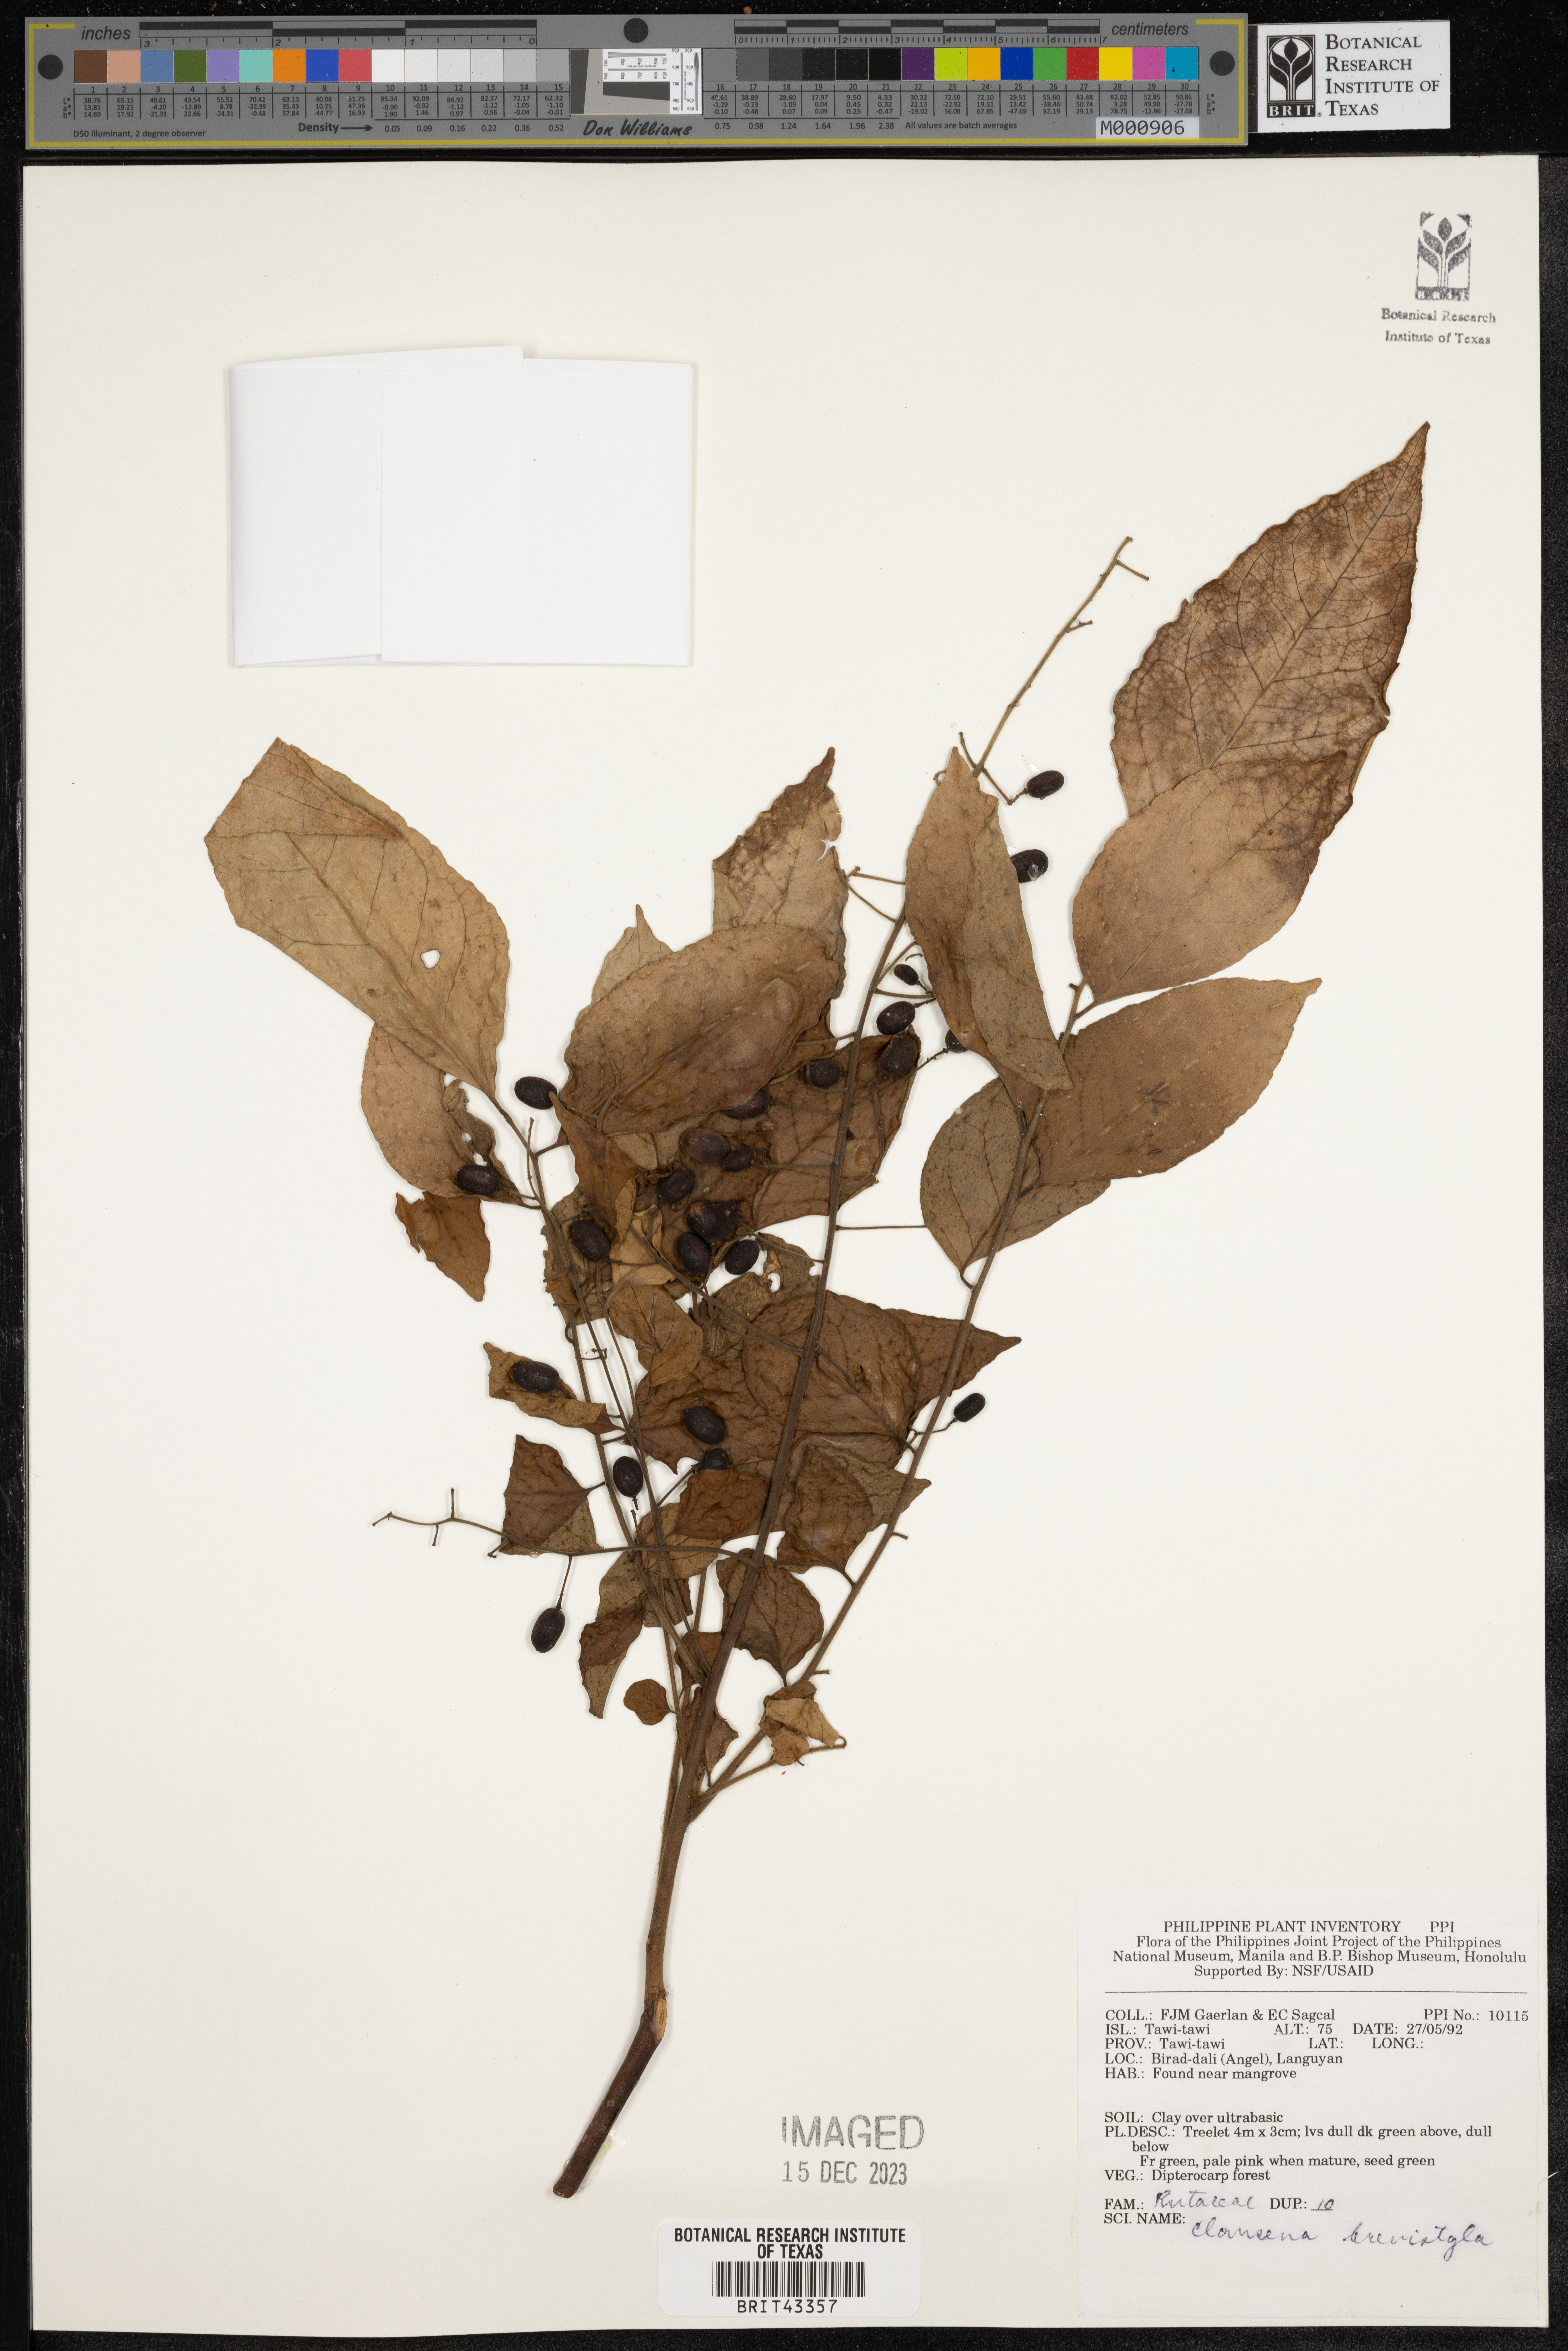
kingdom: Plantae
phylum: Tracheophyta
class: Magnoliopsida
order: Sapindales
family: Rutaceae
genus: Clausena
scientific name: Clausena brevistyla
